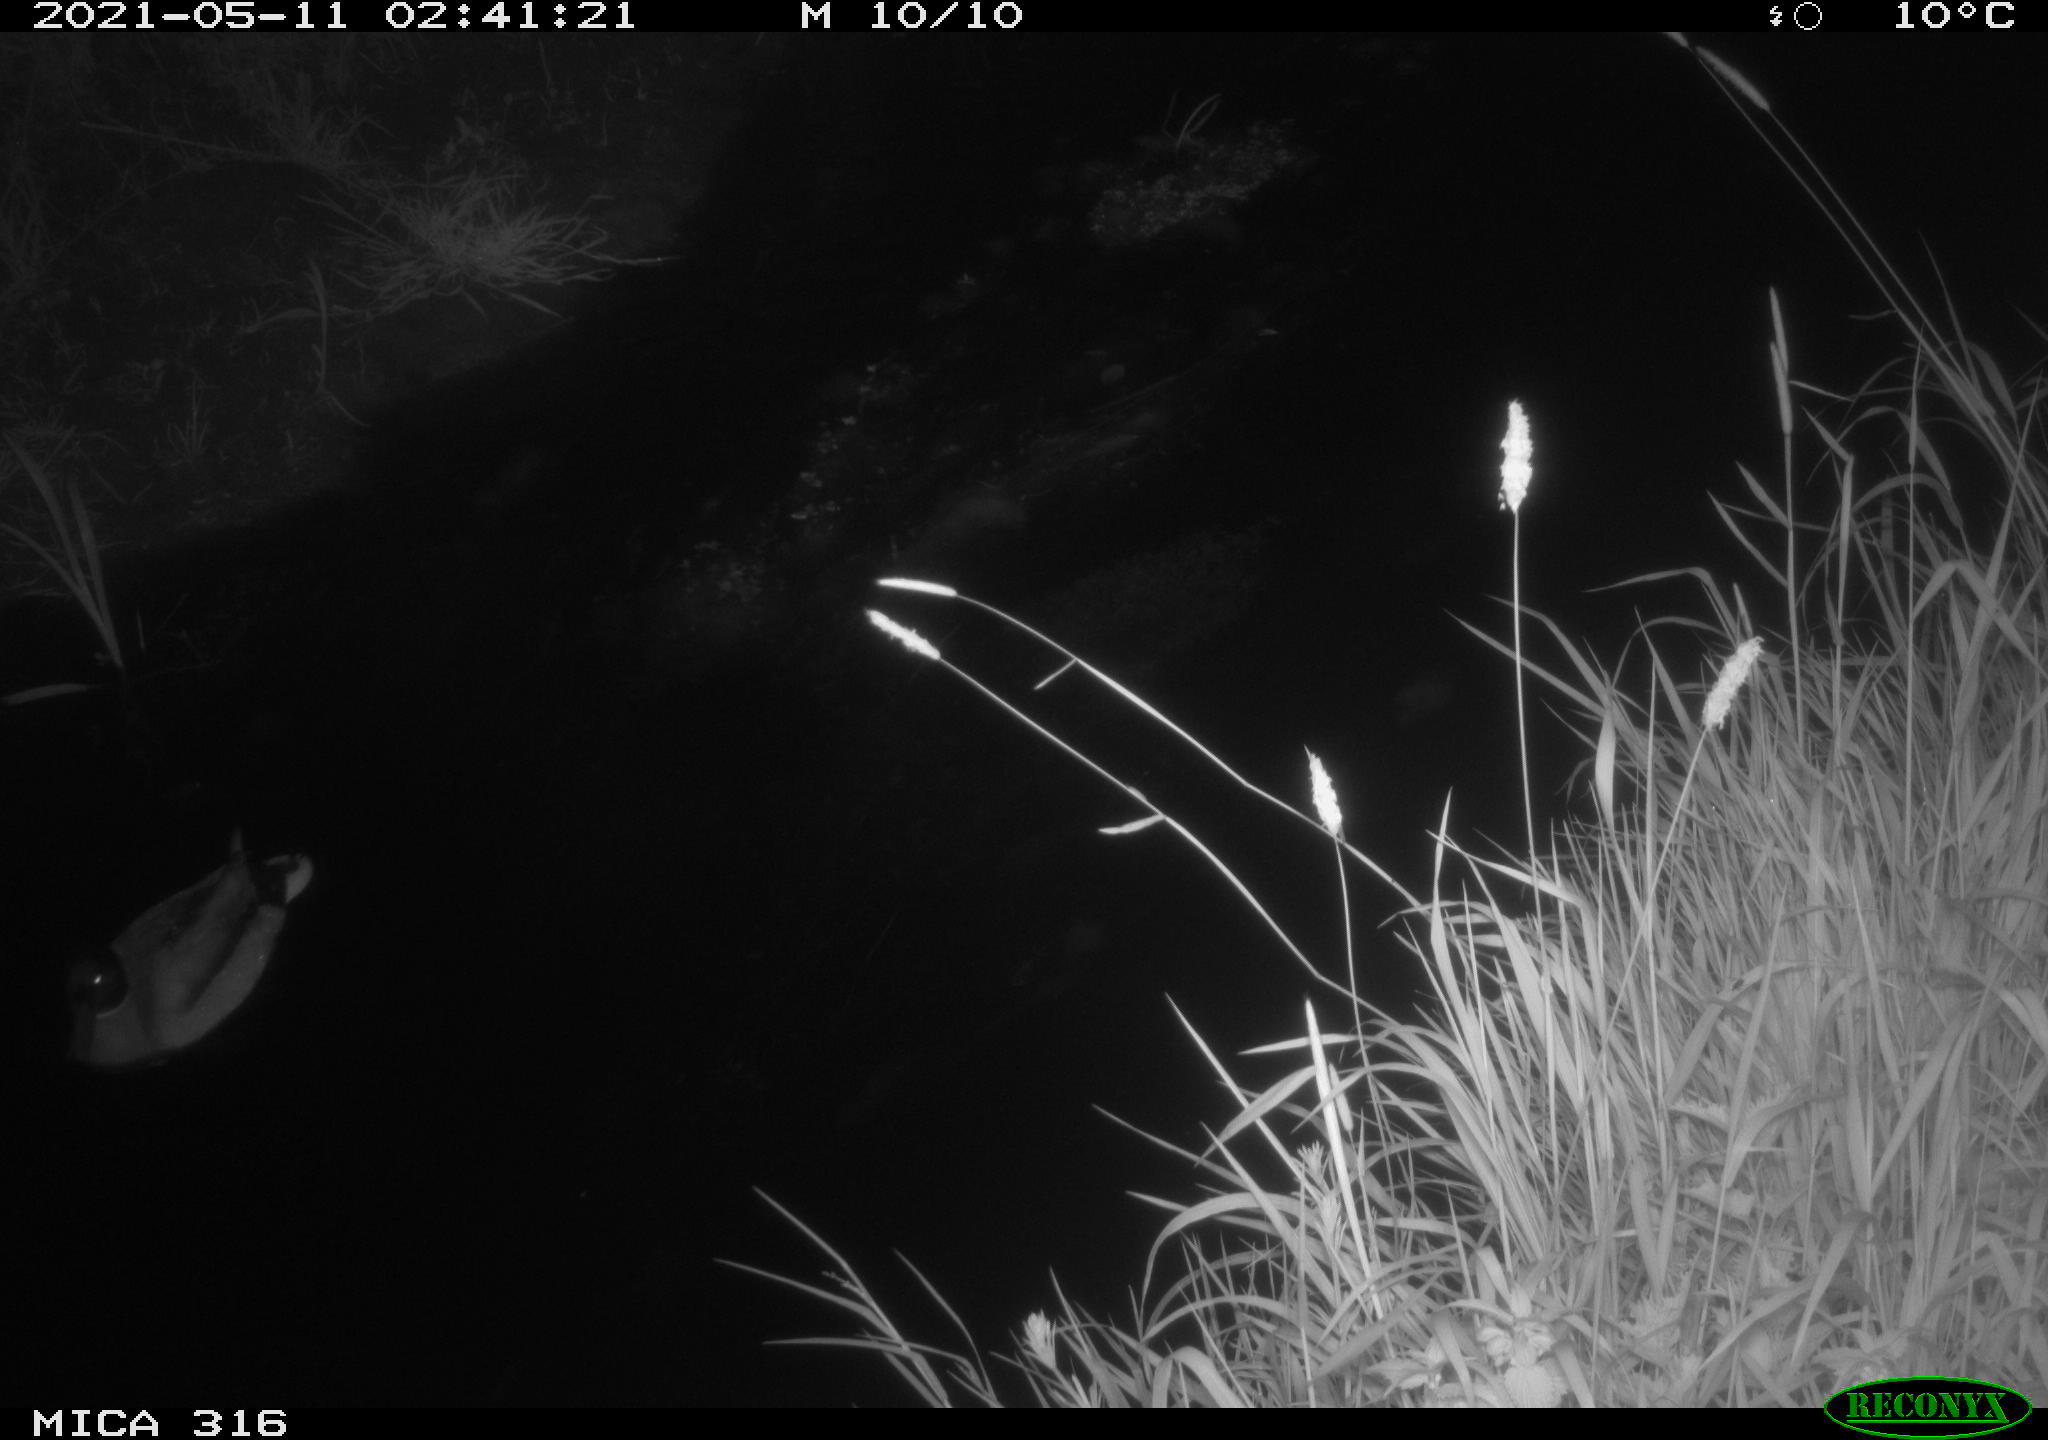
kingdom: Animalia
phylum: Chordata
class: Aves
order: Anseriformes
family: Anatidae
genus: Anas
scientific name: Anas platyrhynchos
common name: Mallard
